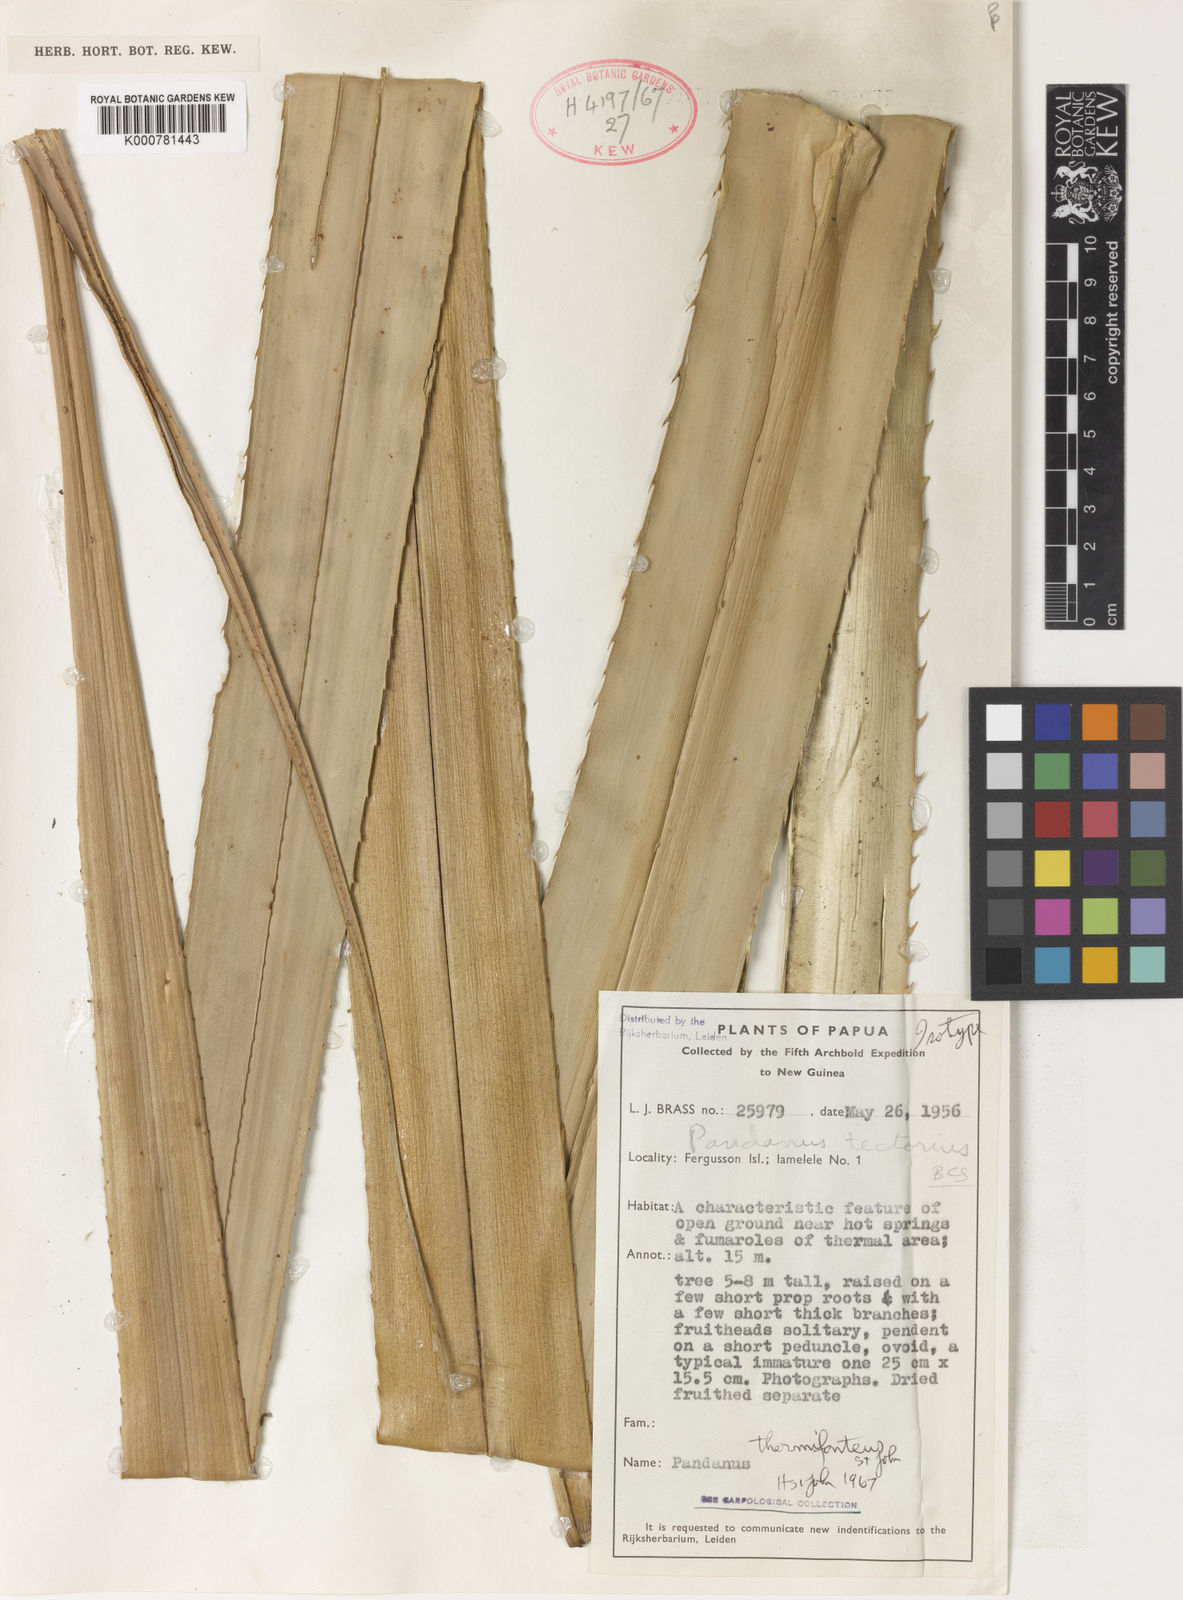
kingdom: Plantae
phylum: Tracheophyta
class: Liliopsida
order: Pandanales
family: Pandanaceae
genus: Pandanus
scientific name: Pandanus
